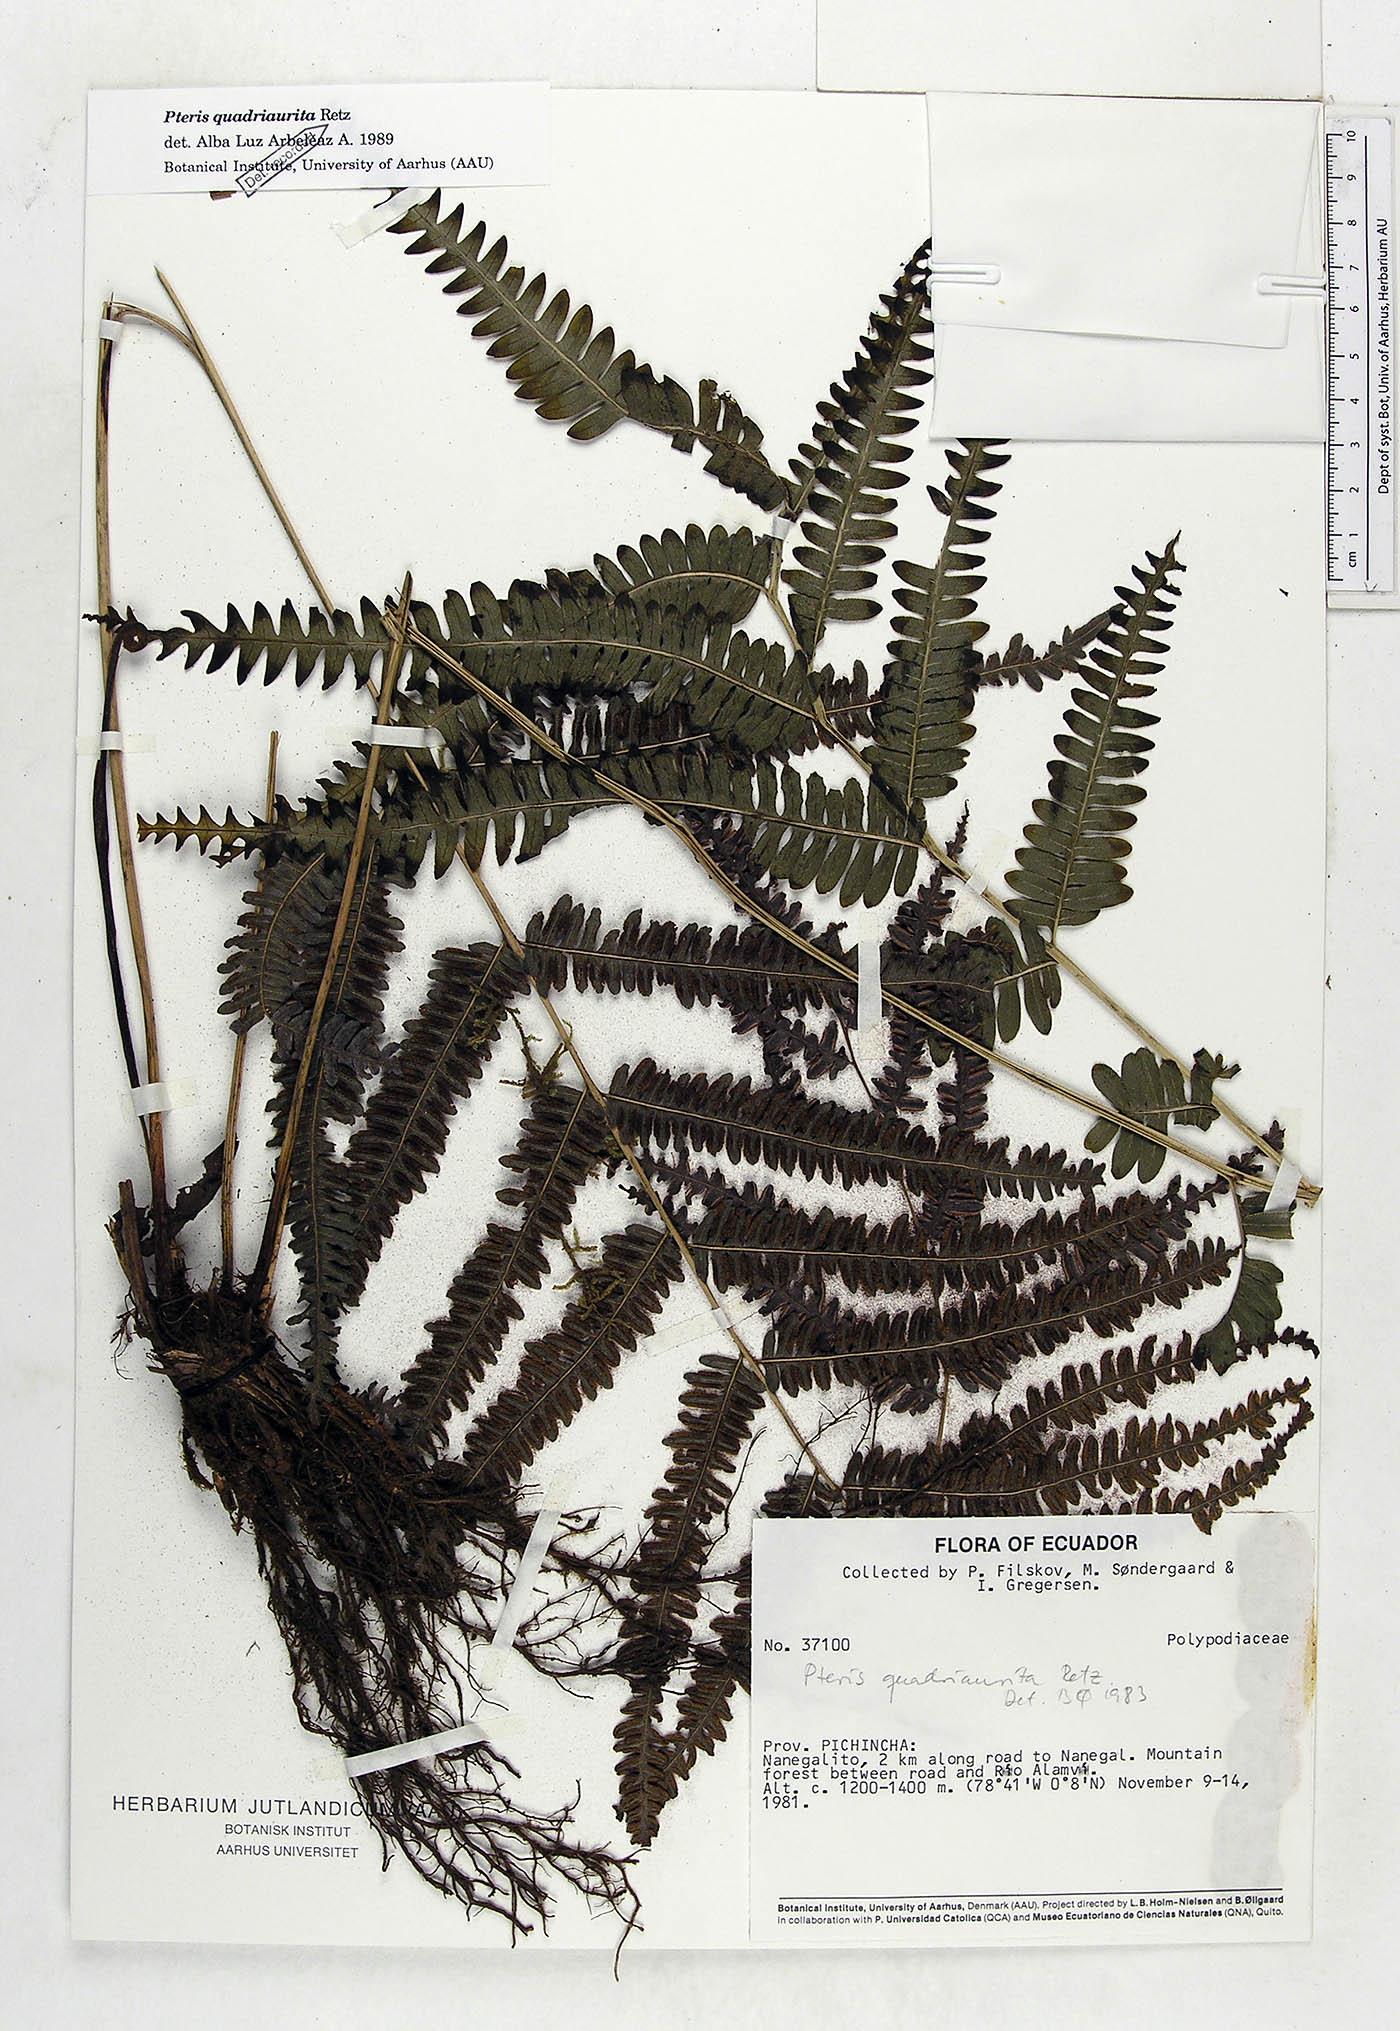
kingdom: Plantae
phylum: Tracheophyta
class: Polypodiopsida
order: Polypodiales
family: Pteridaceae
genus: Pteris
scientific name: Pteris quadriaurita
